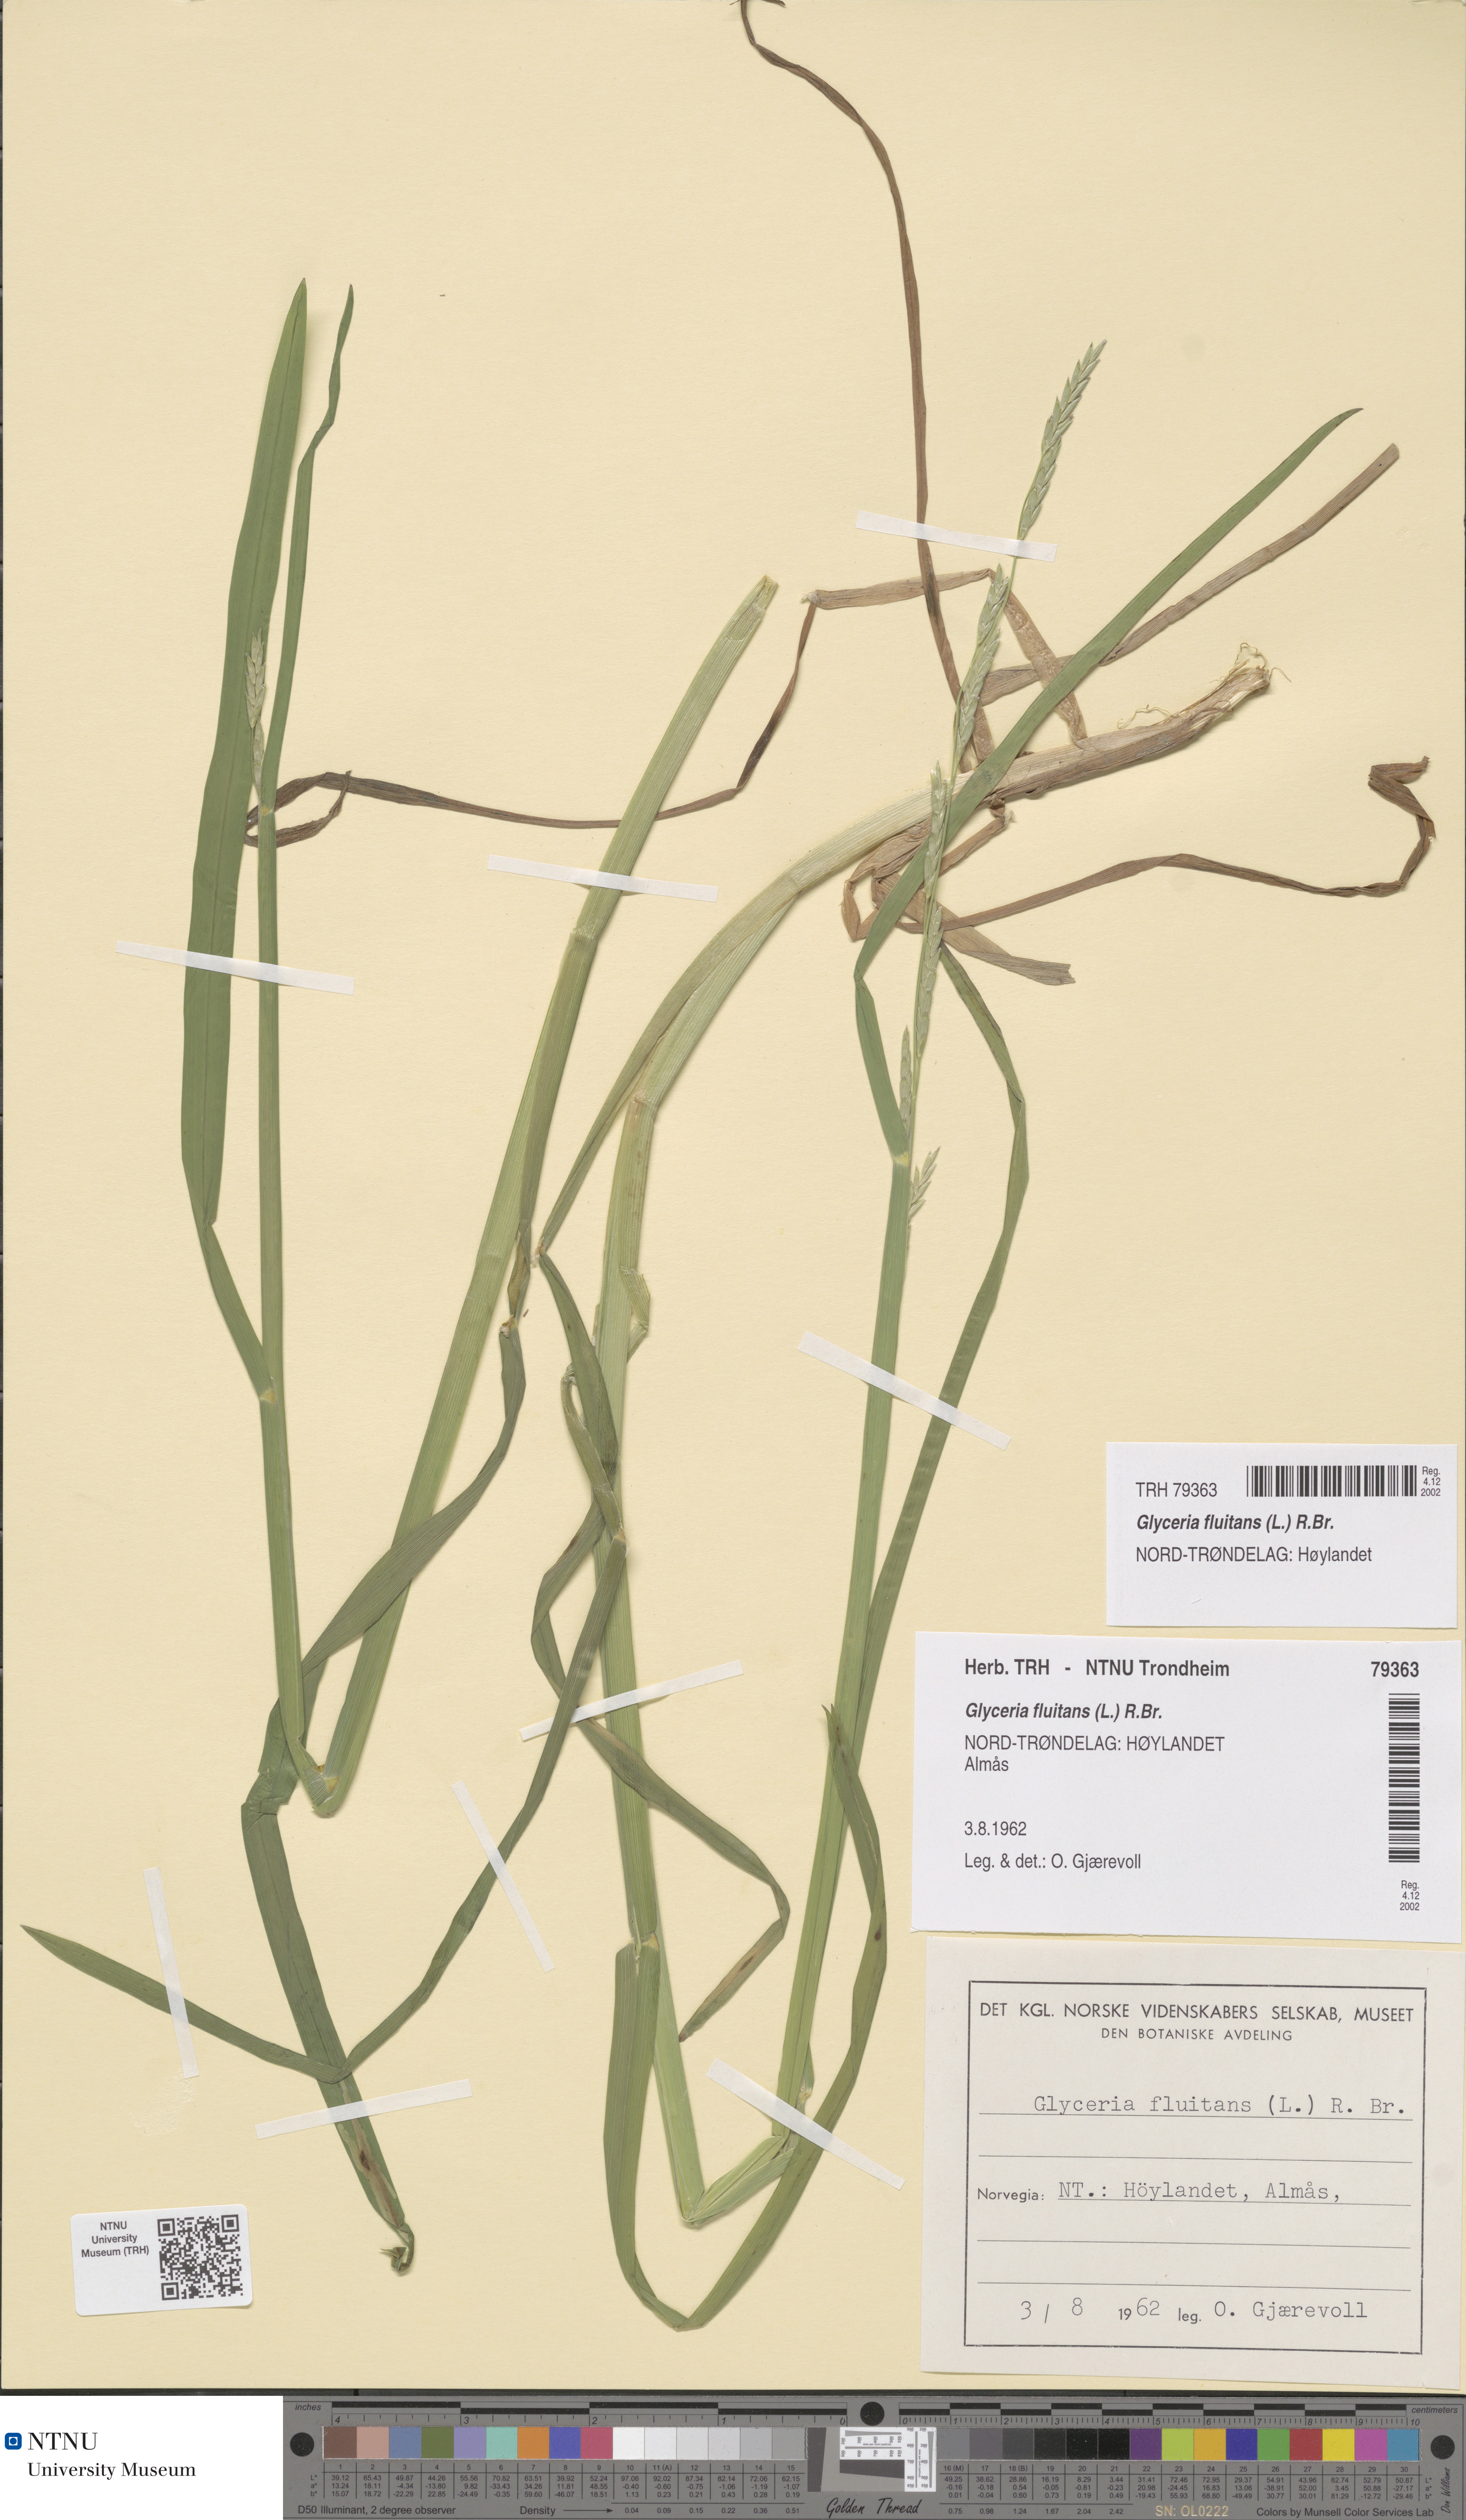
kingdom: Plantae
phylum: Tracheophyta
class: Liliopsida
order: Poales
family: Poaceae
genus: Glyceria
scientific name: Glyceria fluitans
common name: Floating sweet-grass
